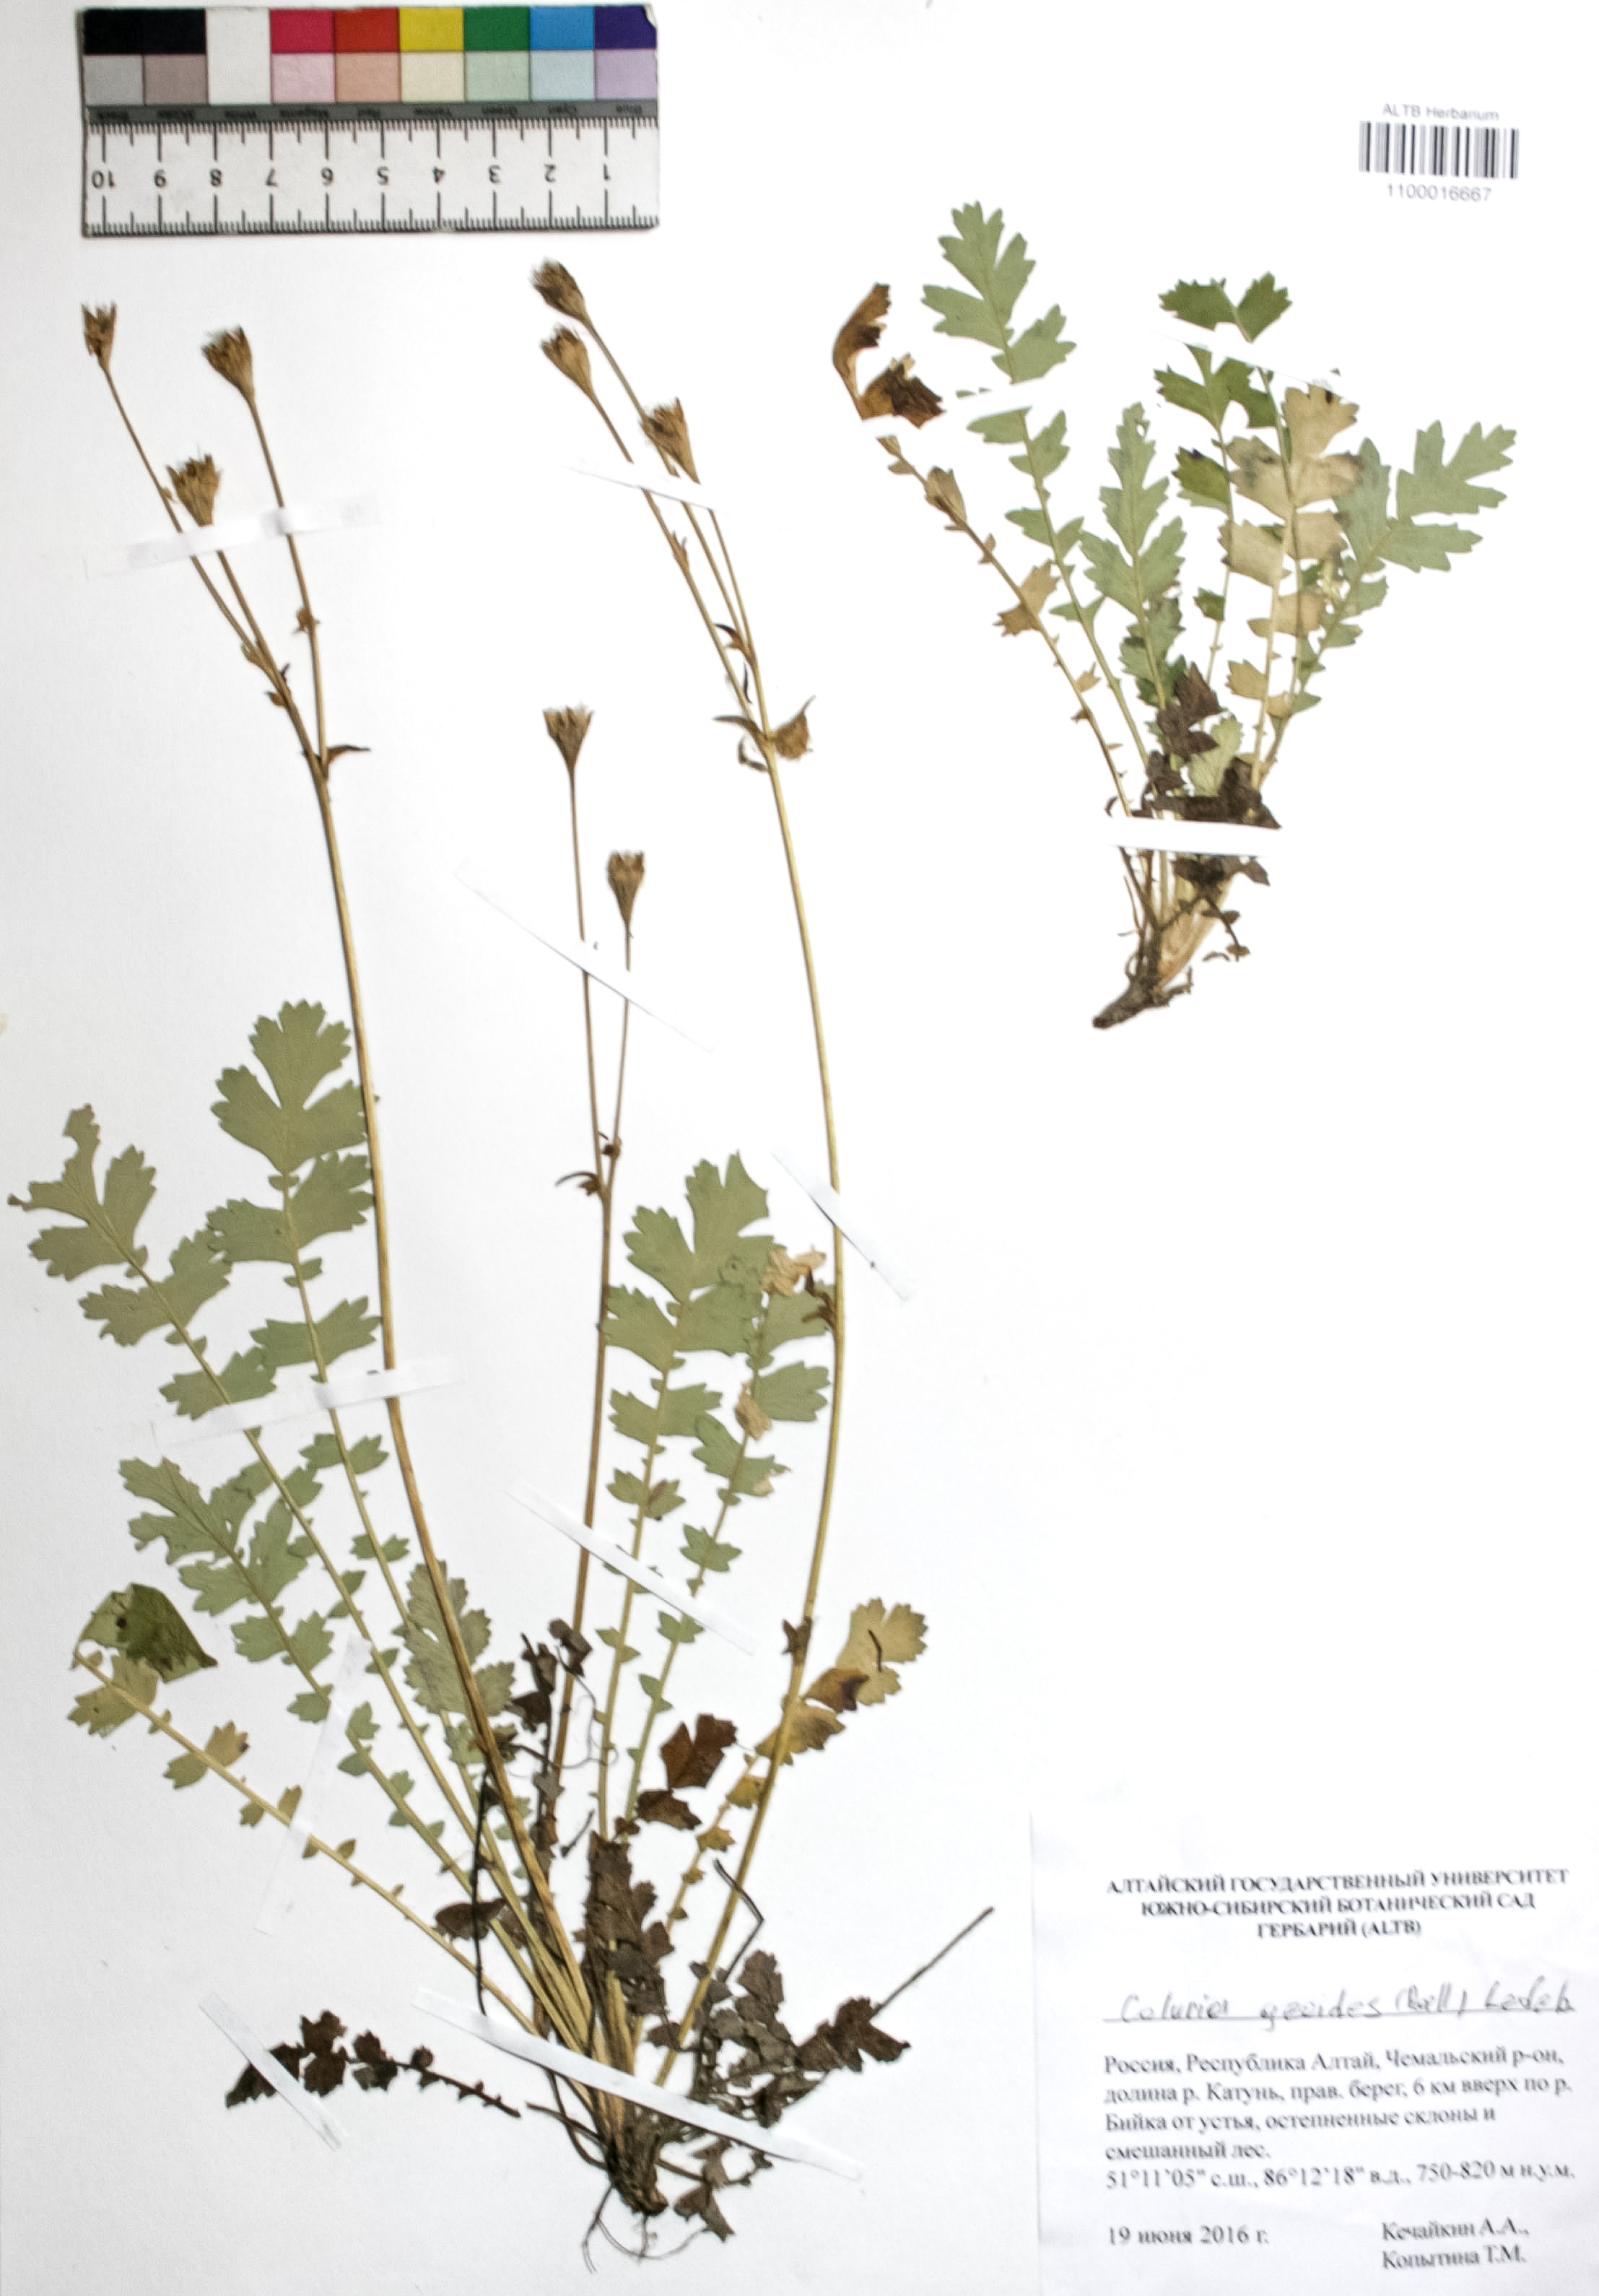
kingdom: Plantae
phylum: Tracheophyta
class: Magnoliopsida
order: Rosales
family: Rosaceae
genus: Geum
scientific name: Geum geoides
